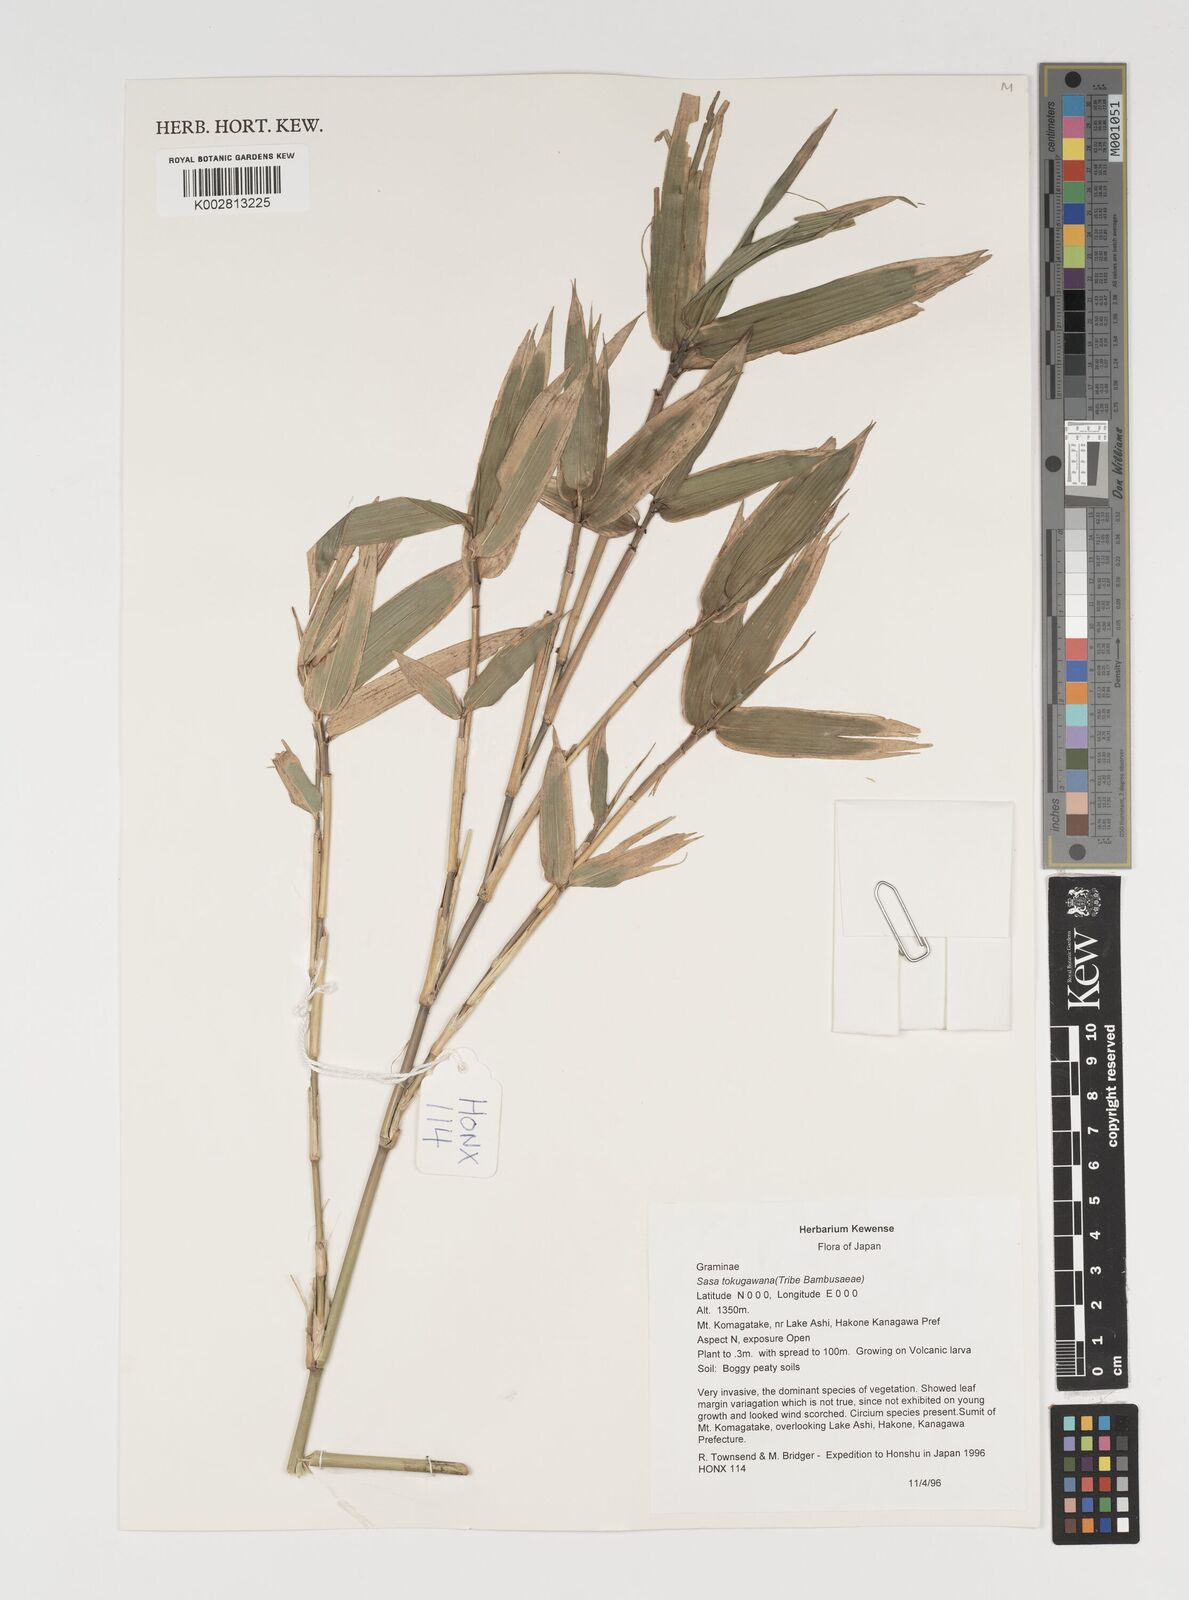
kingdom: Plantae
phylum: Tracheophyta
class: Liliopsida
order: Poales
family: Poaceae
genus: Sasa
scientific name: Sasa tokugawana
